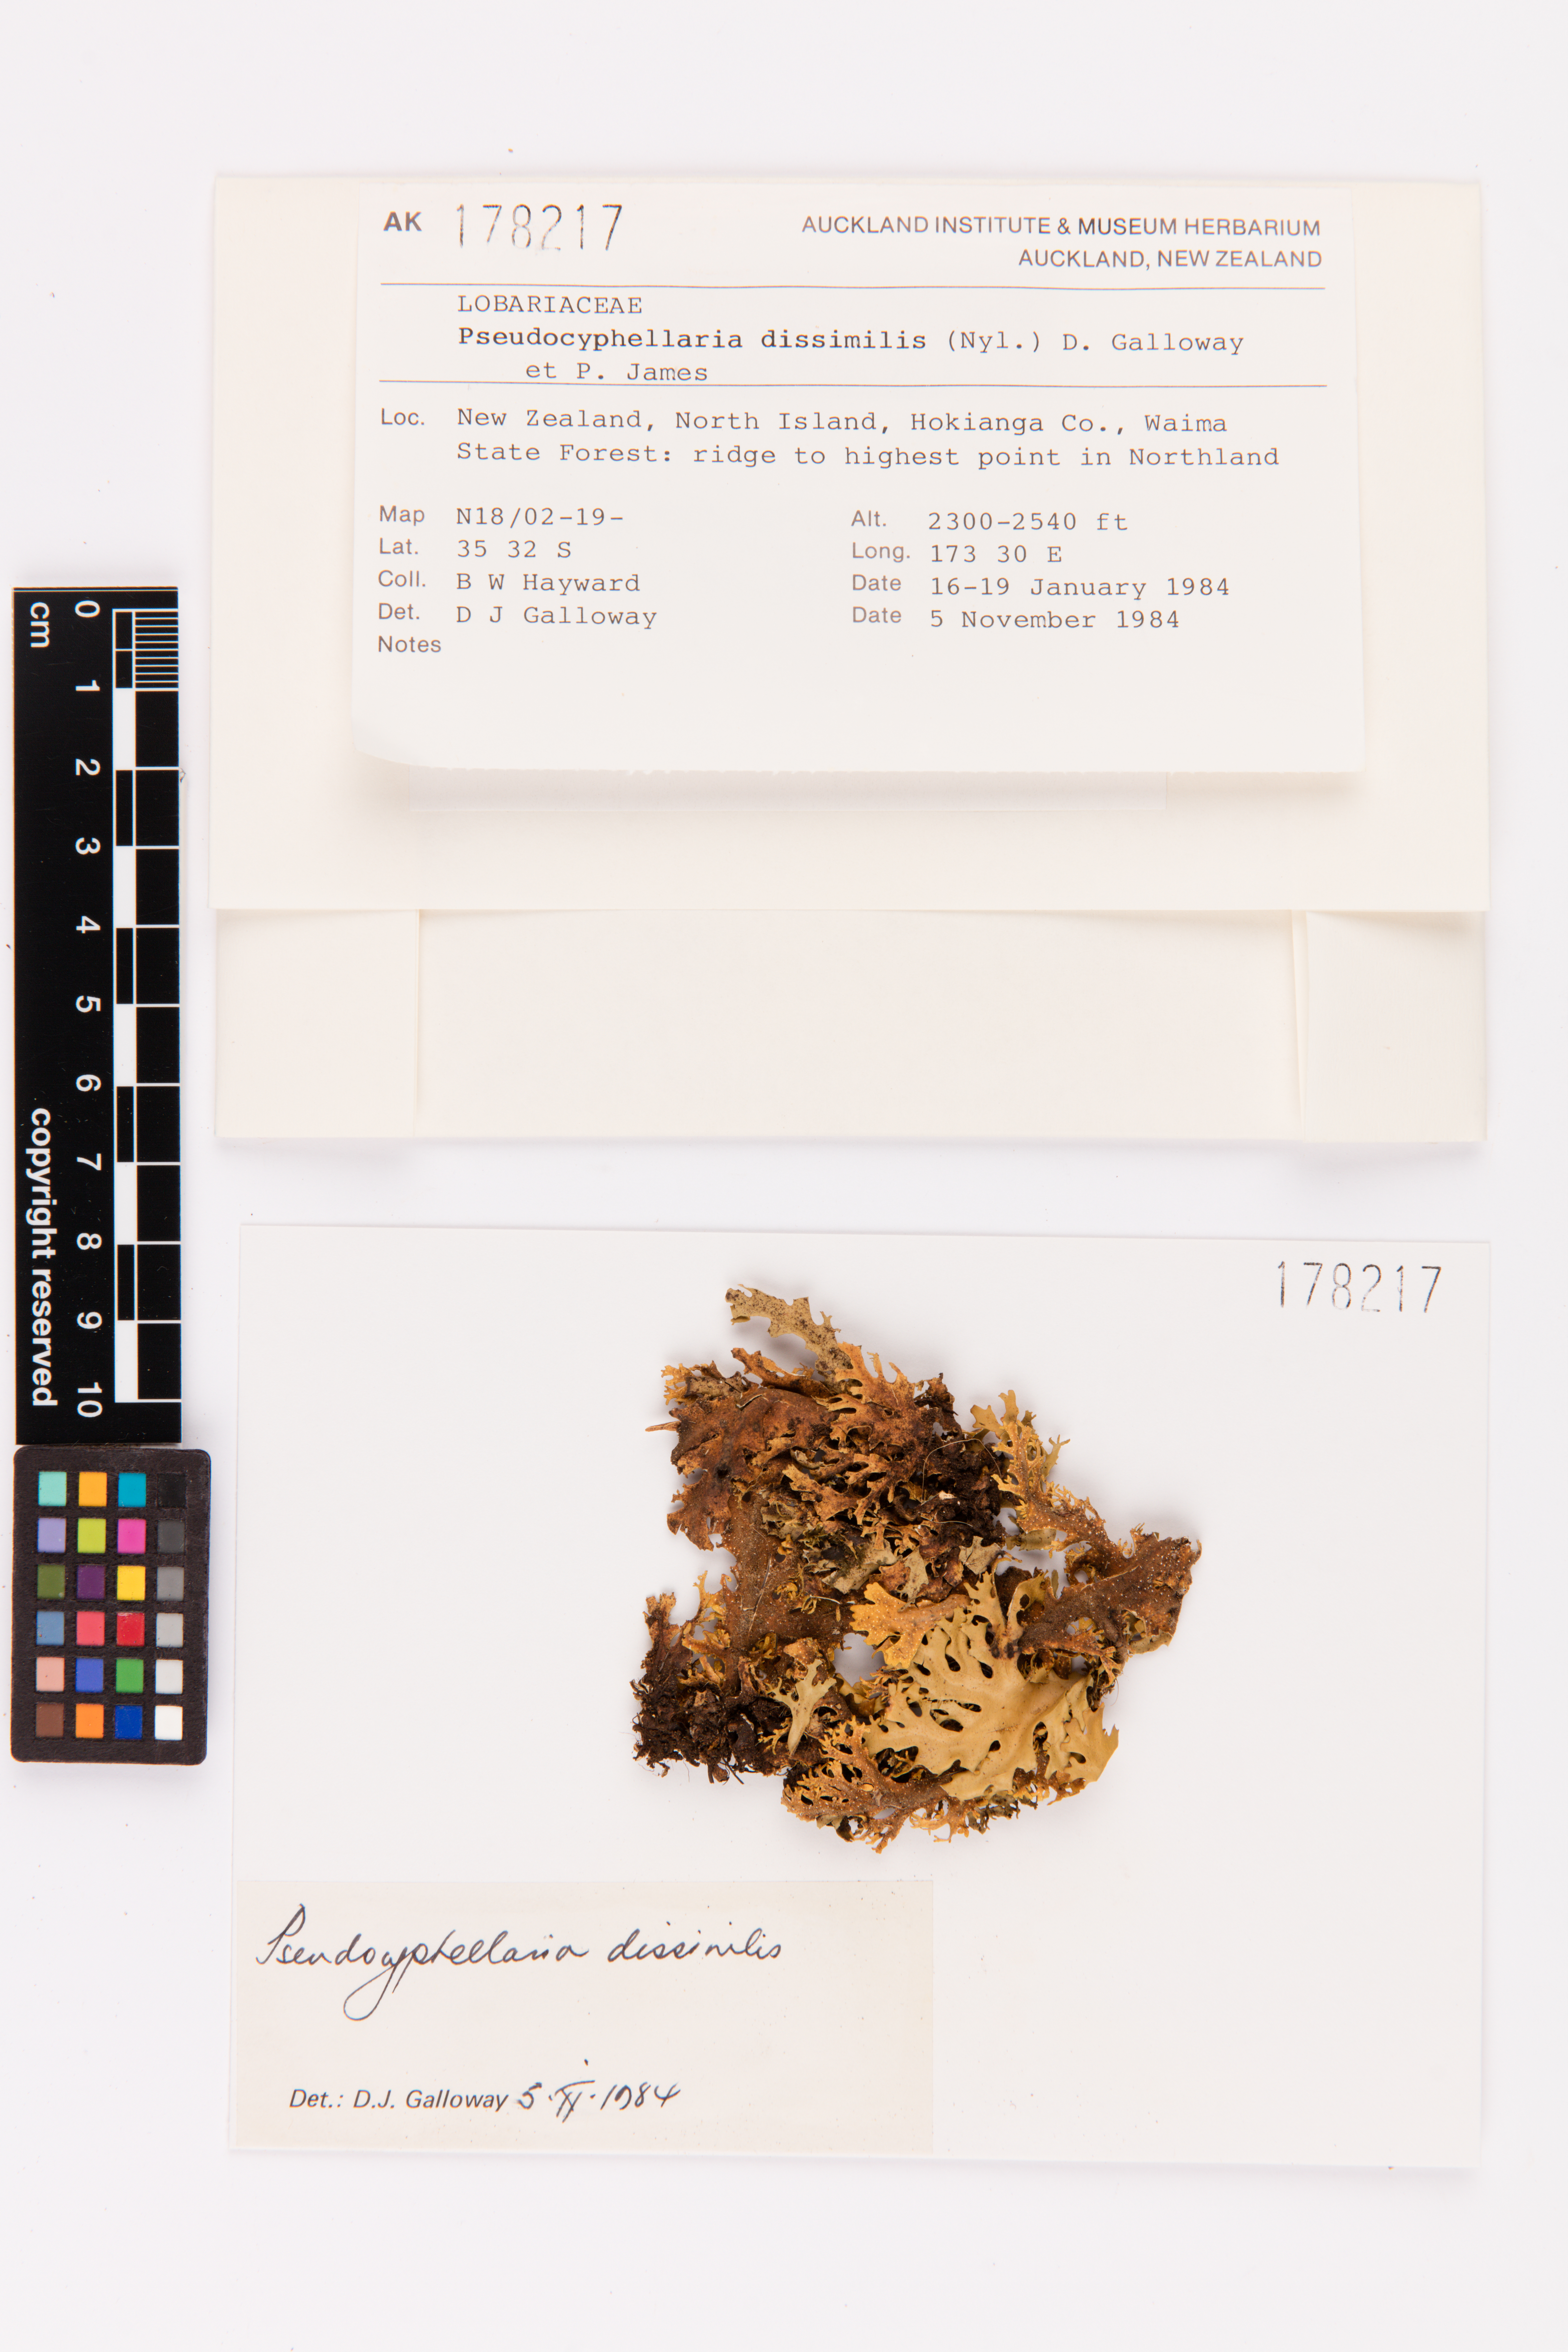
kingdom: Fungi
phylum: Ascomycota
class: Lecanoromycetes
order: Peltigerales
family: Lobariaceae
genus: Pseudocyphellaria
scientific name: Pseudocyphellaria dissimilis
